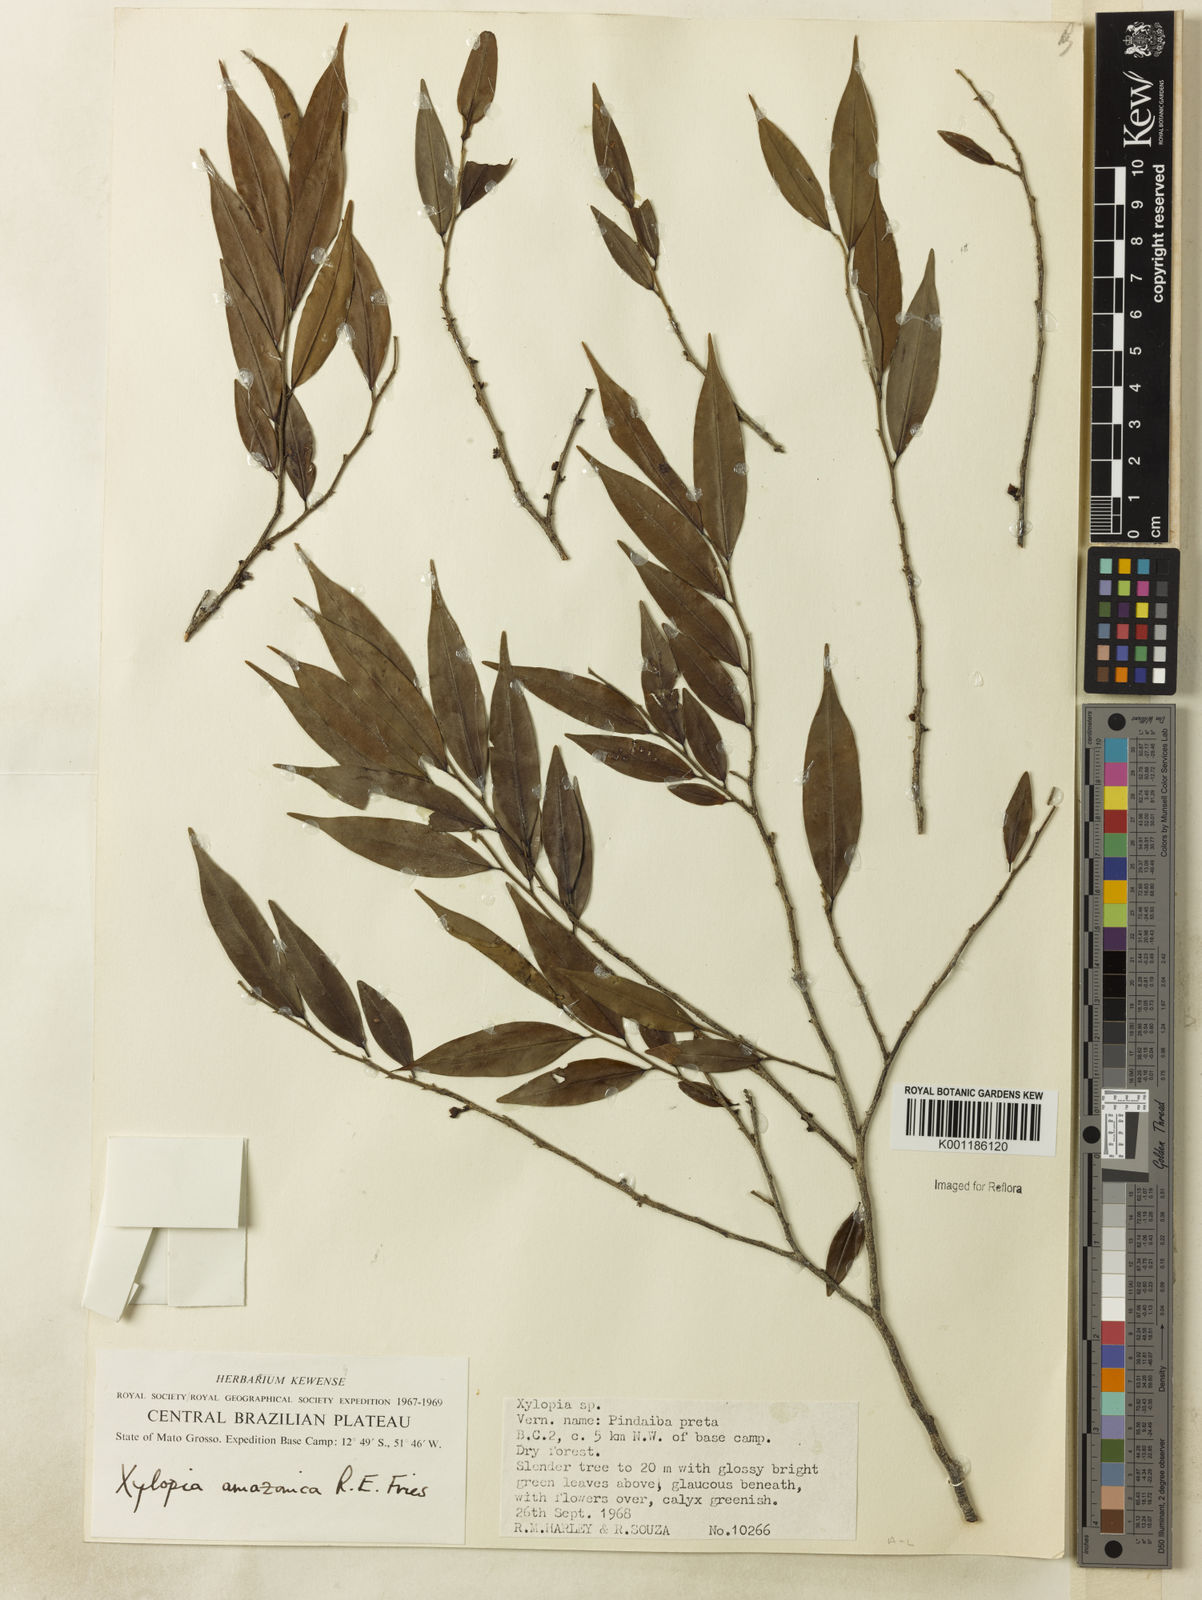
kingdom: Plantae
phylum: Tracheophyta
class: Magnoliopsida
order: Magnoliales
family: Annonaceae
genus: Xylopia
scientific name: Xylopia amazonica
